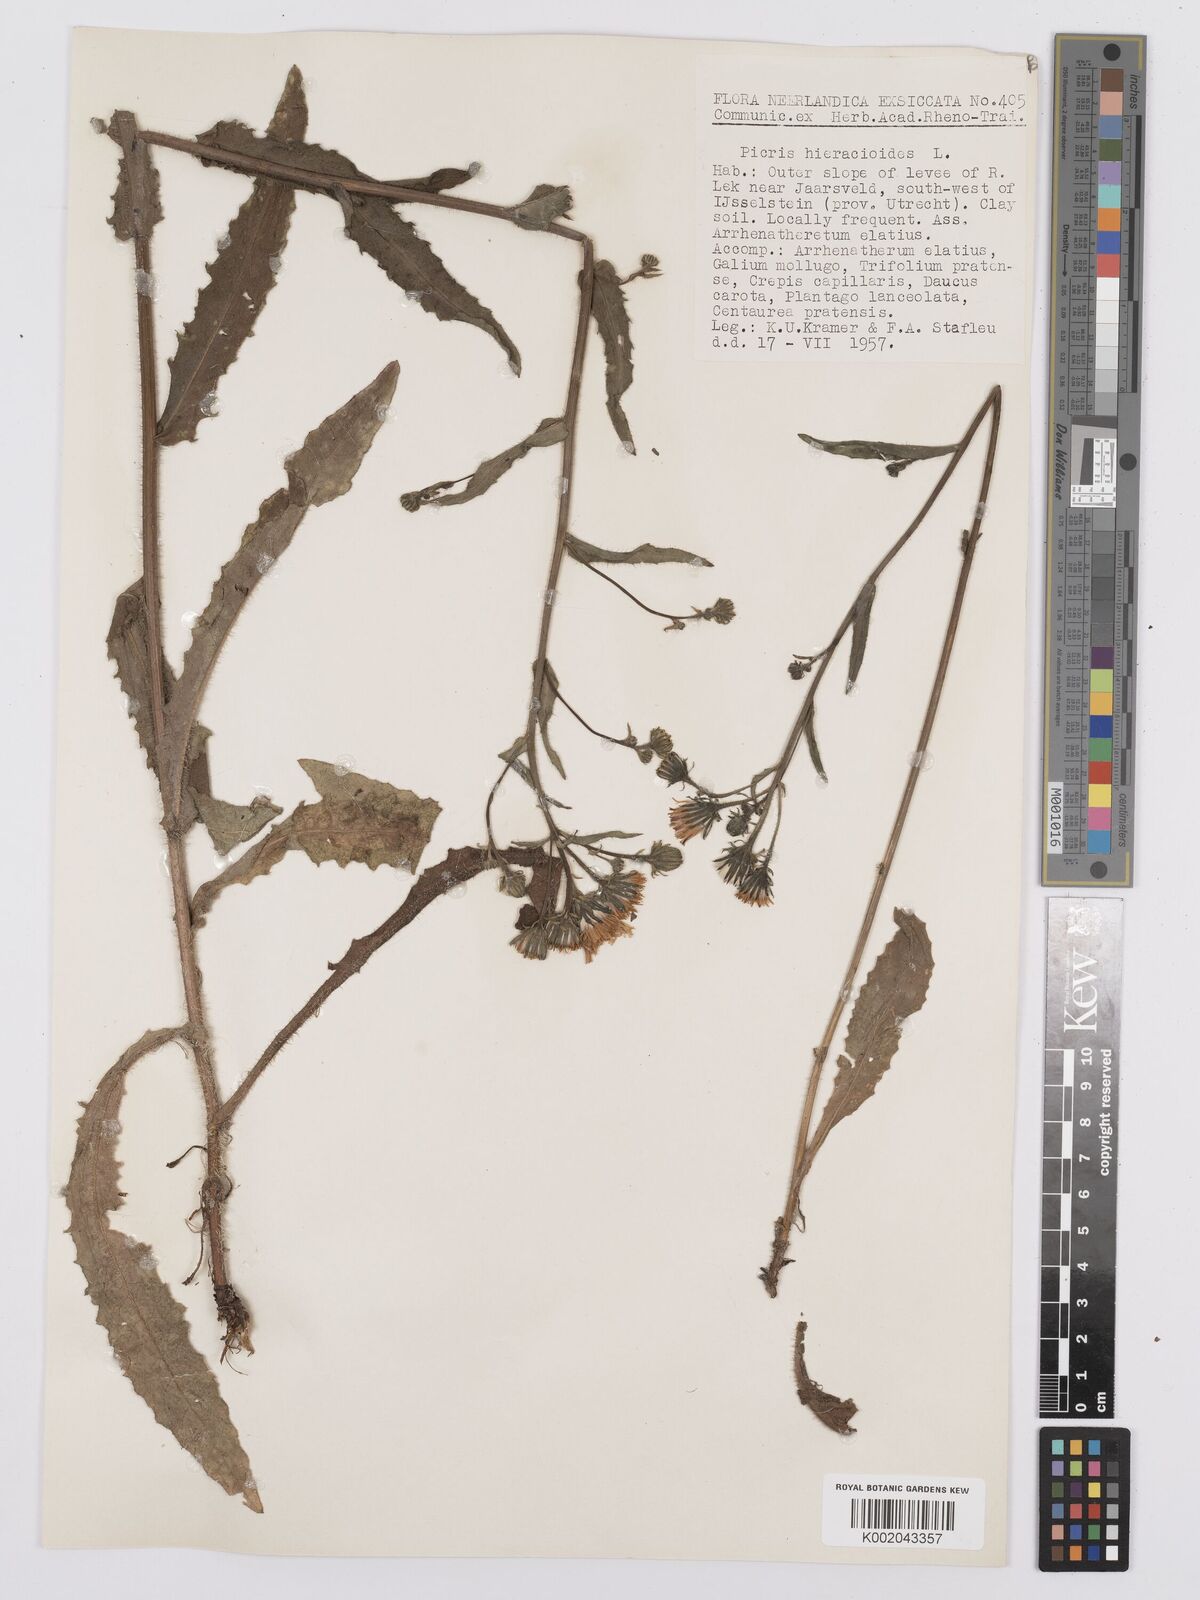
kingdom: Plantae
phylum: Tracheophyta
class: Magnoliopsida
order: Asterales
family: Asteraceae
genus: Picris
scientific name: Picris hieracioides
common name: Hawkweed oxtongue
